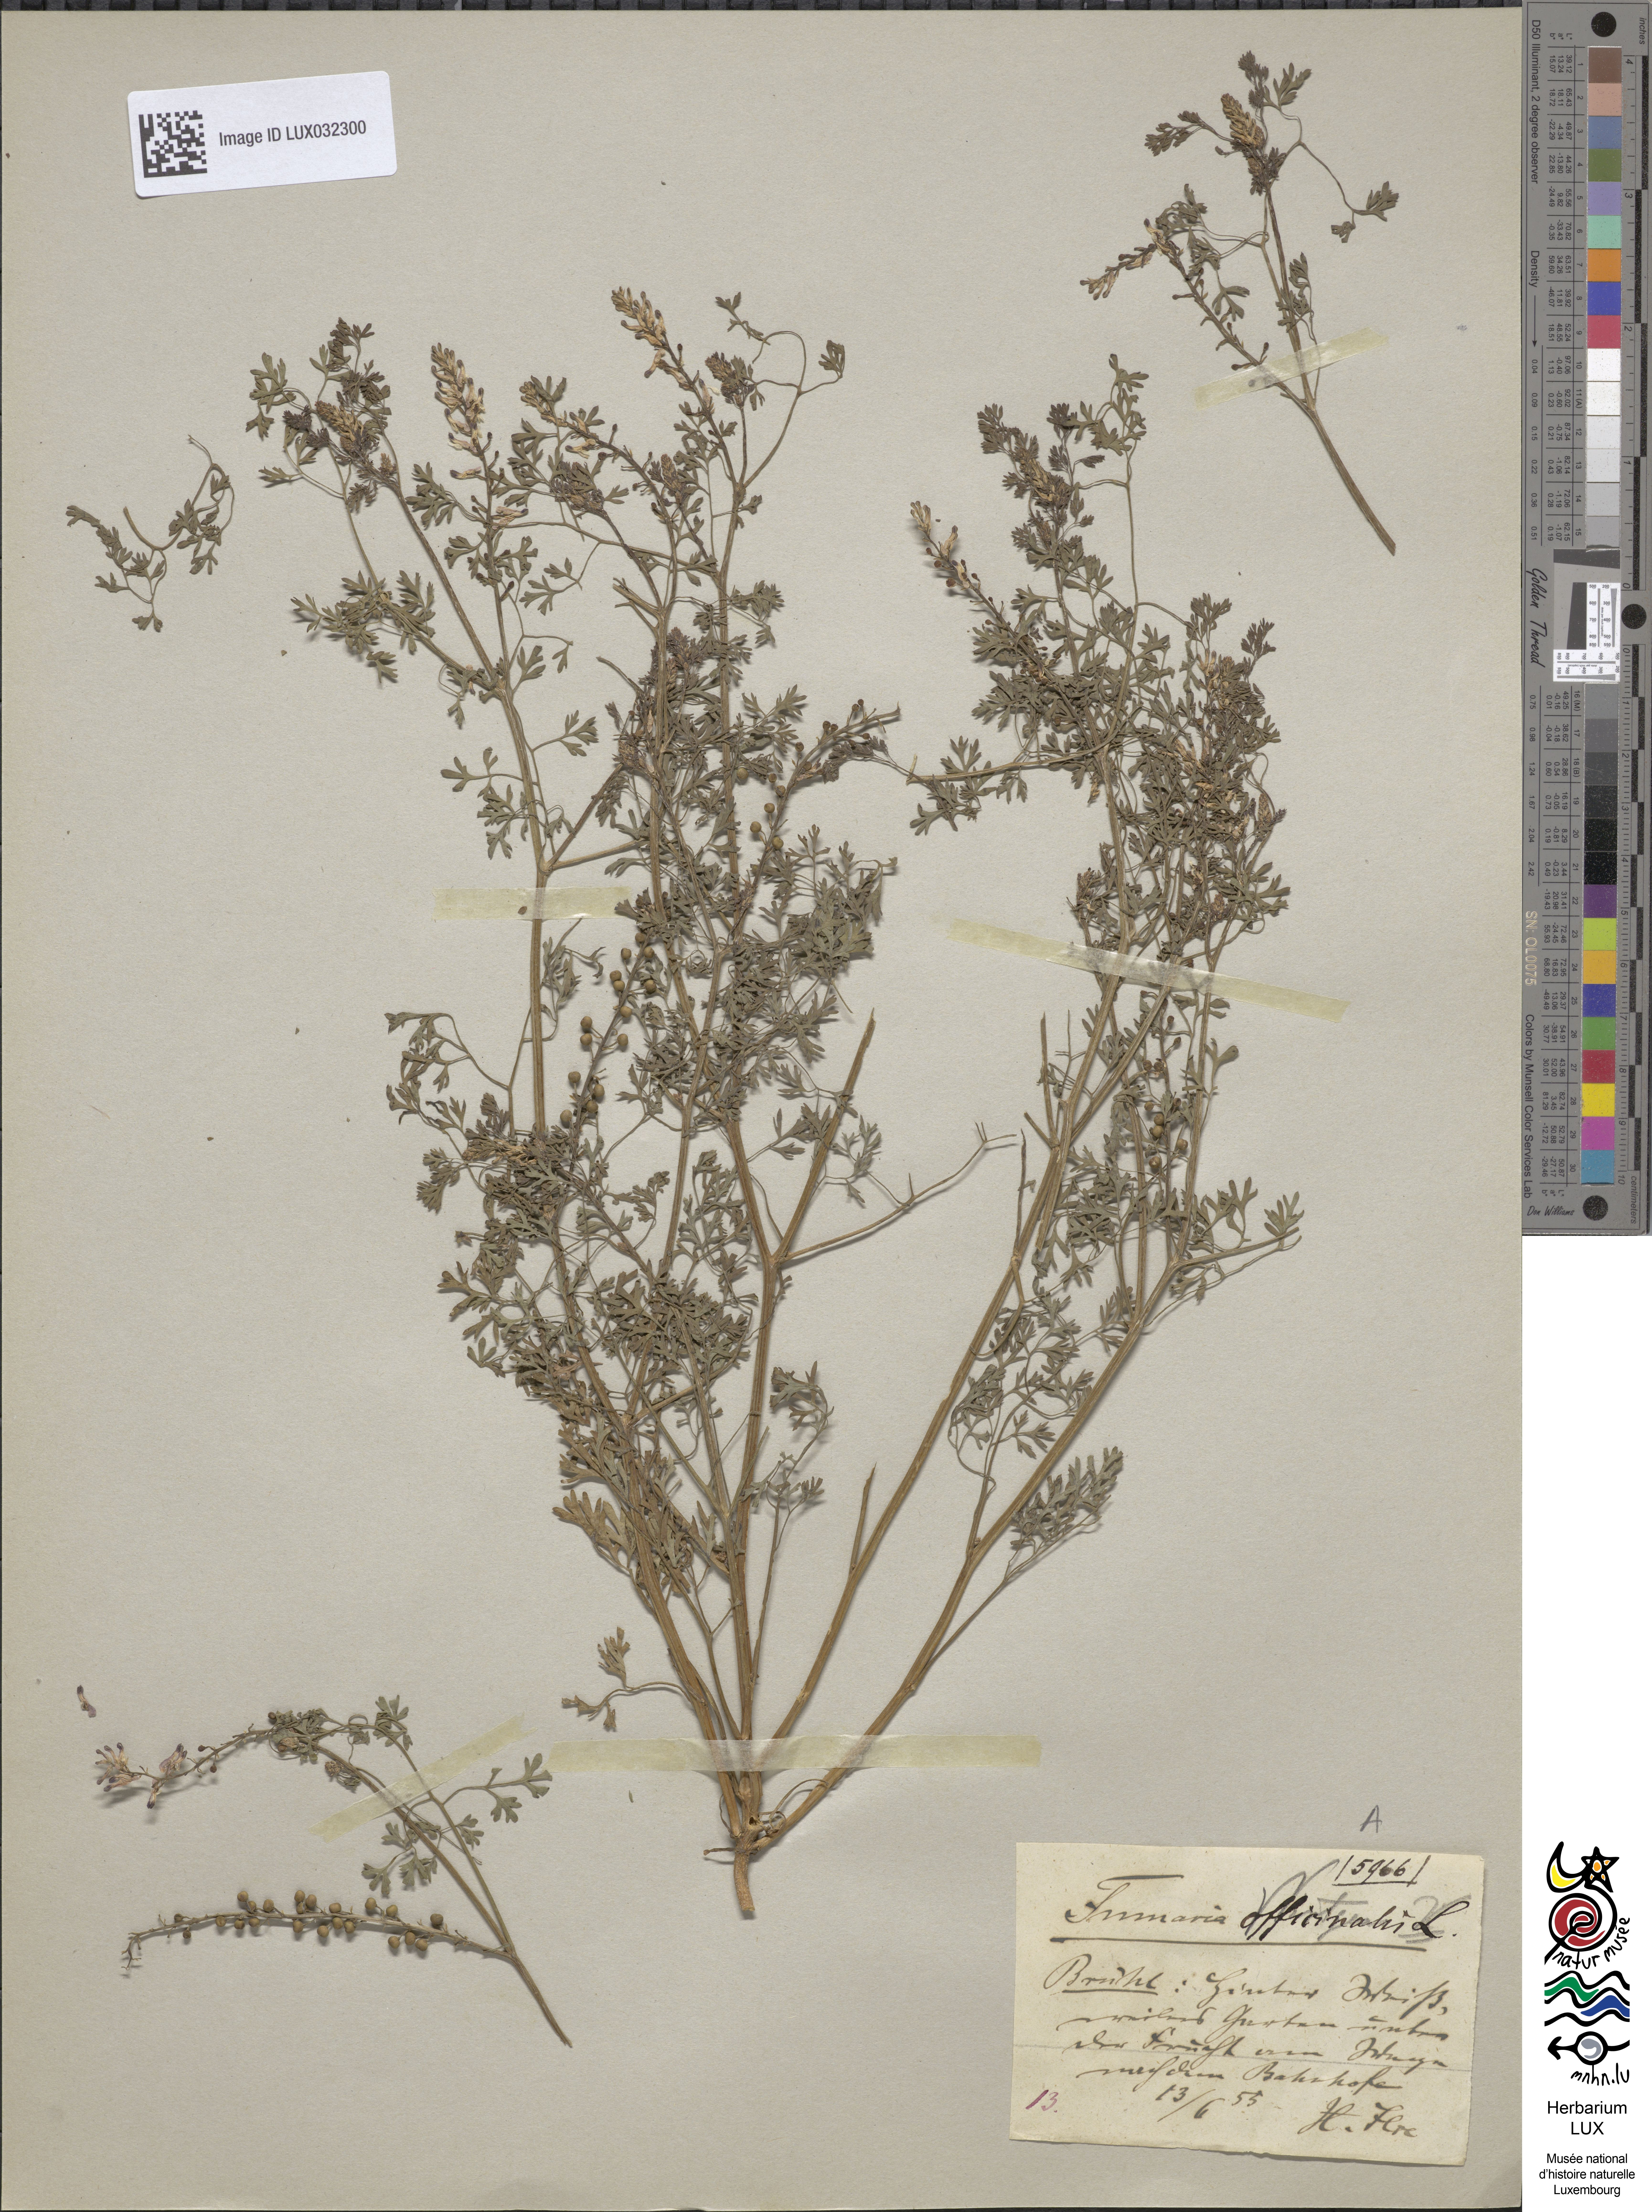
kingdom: Plantae
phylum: Tracheophyta
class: Magnoliopsida
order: Ranunculales
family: Papaveraceae
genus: Fumaria
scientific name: Fumaria officinalis
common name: Common fumitory
